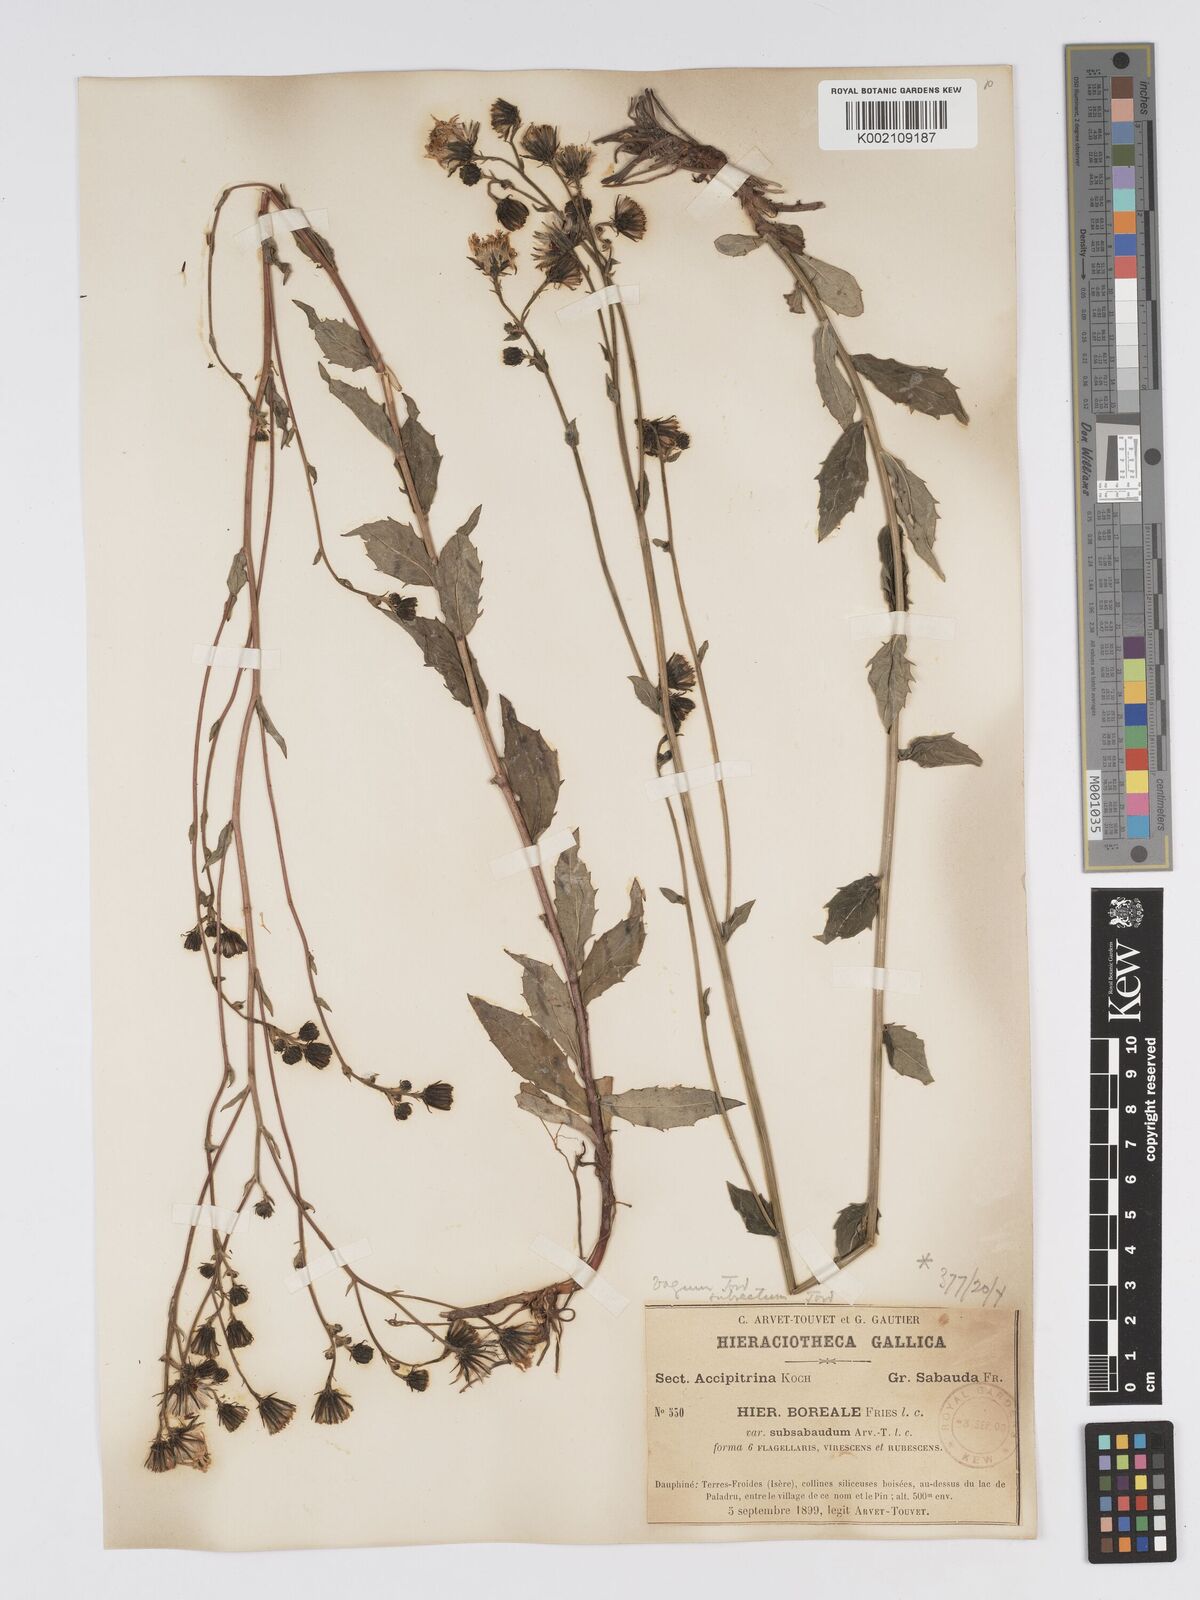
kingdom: Plantae
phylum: Tracheophyta
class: Magnoliopsida
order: Asterales
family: Asteraceae
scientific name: Asteraceae
